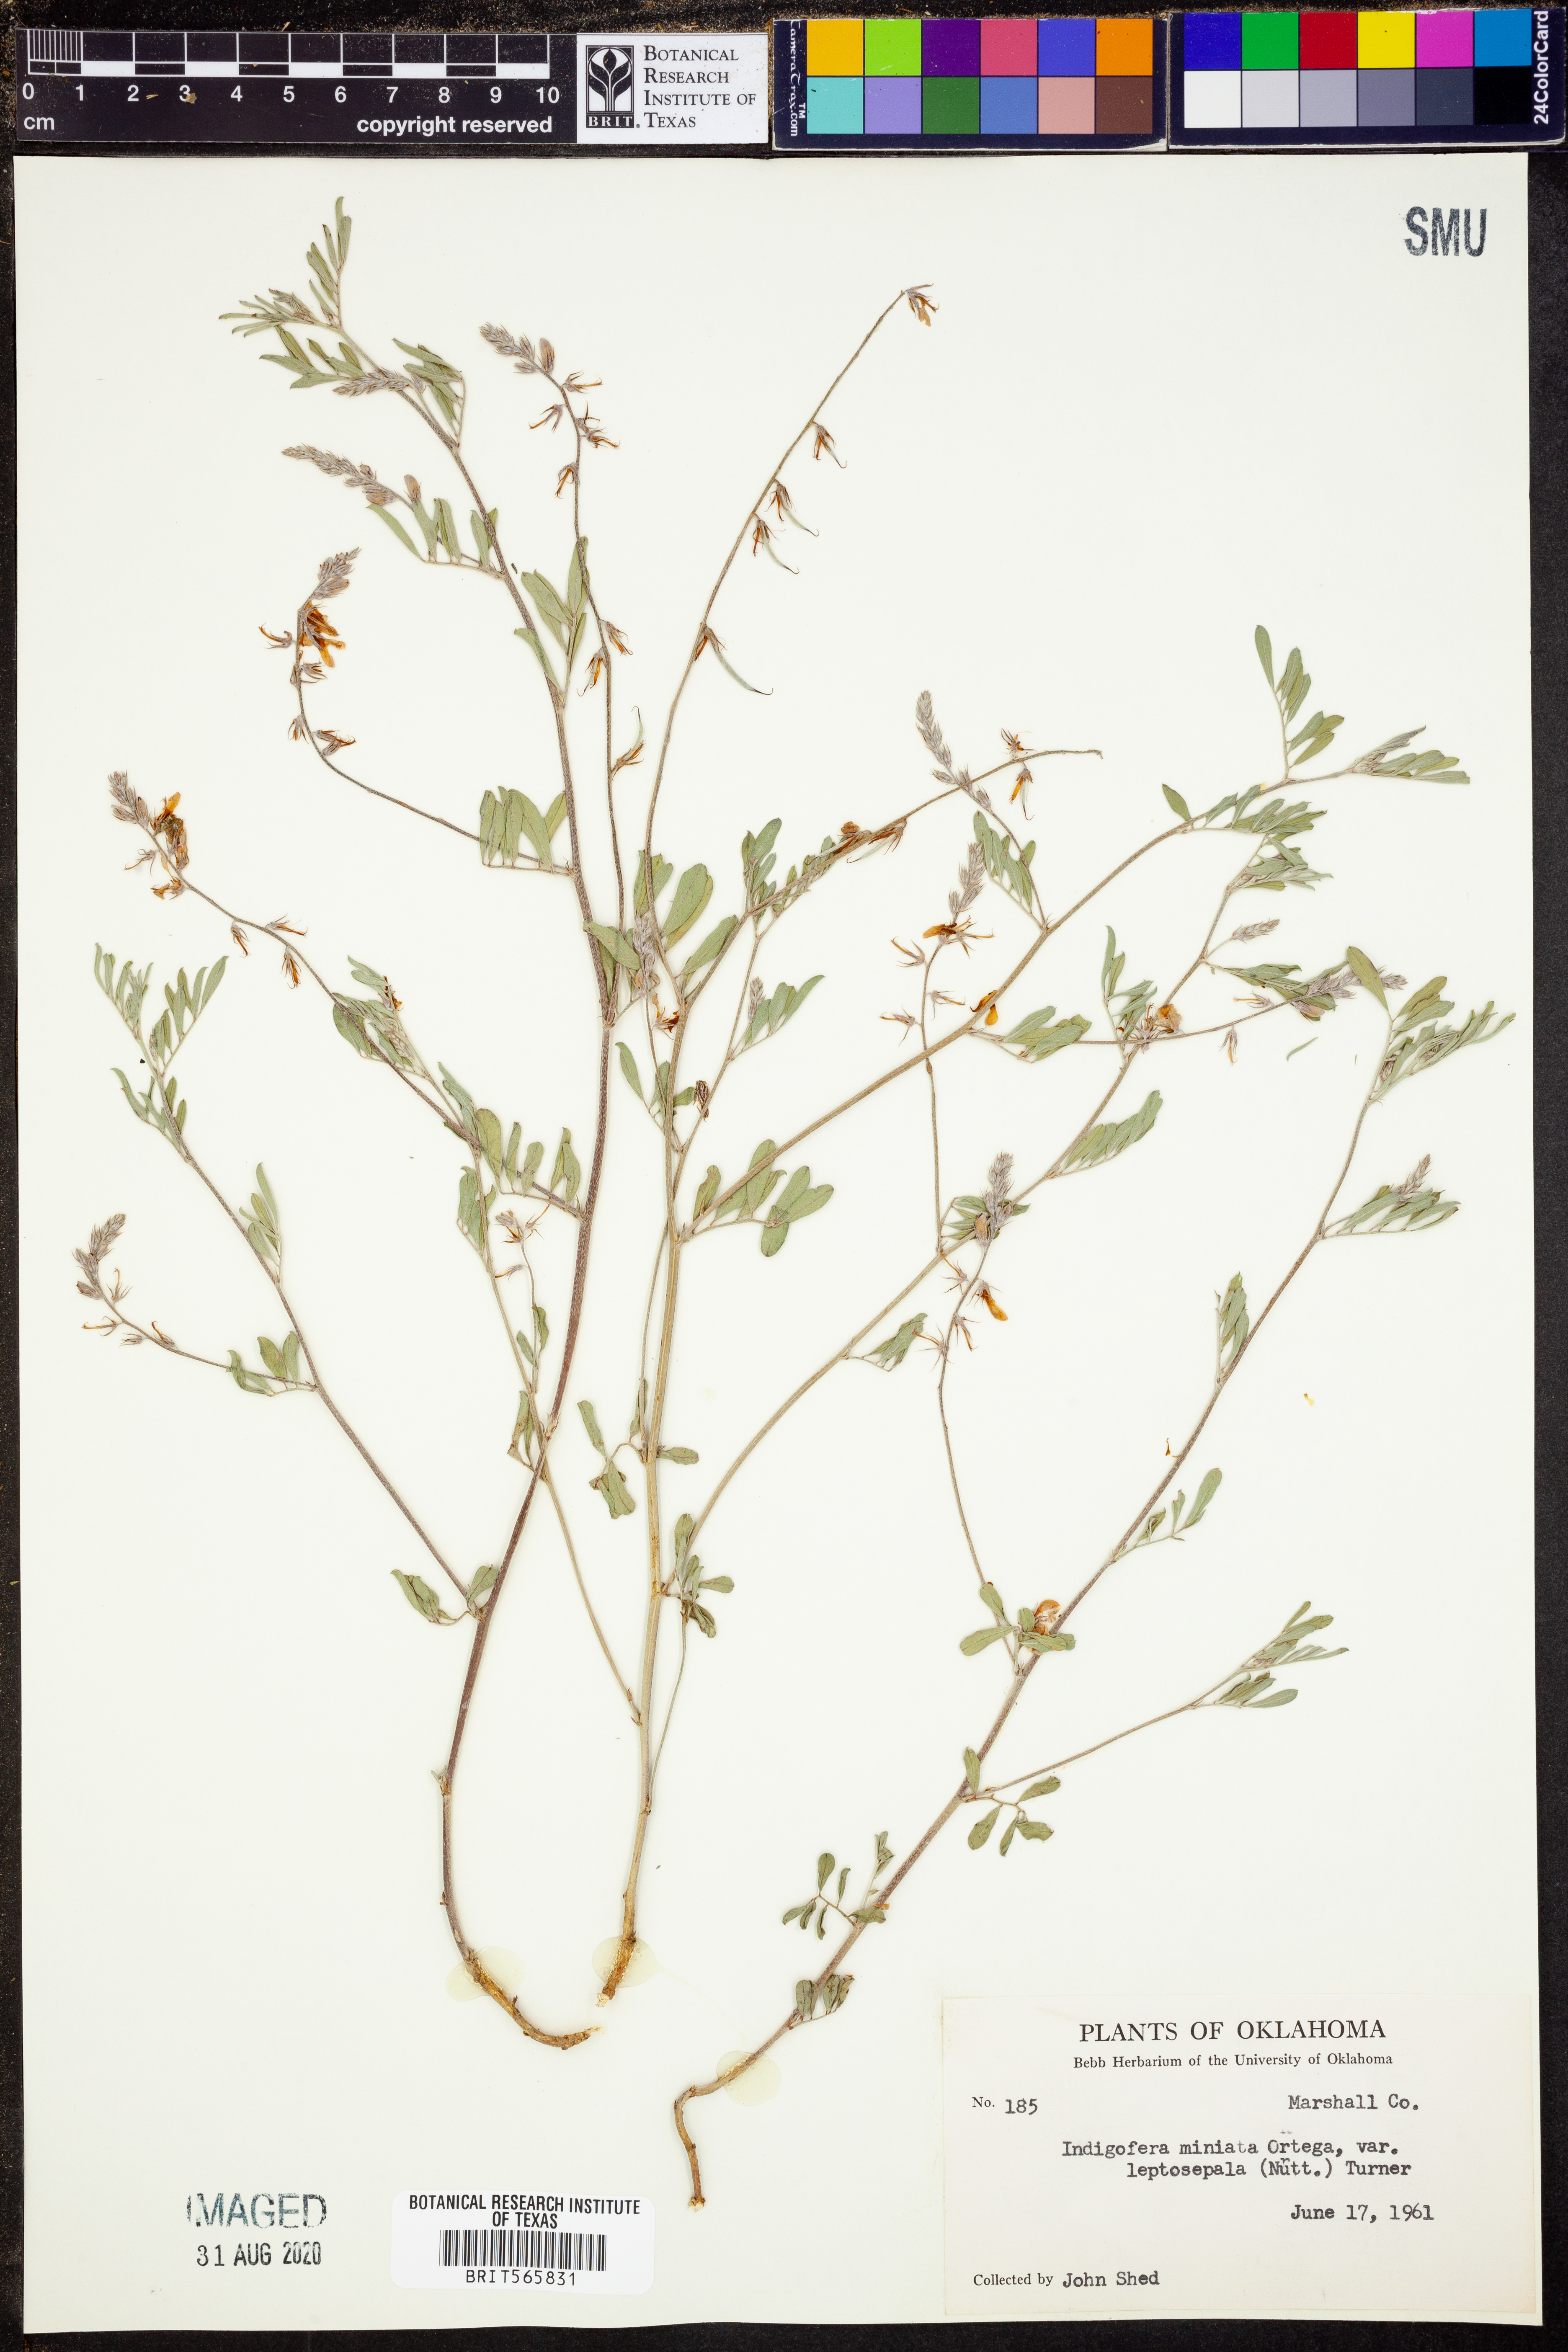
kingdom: Plantae
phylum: Tracheophyta
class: Magnoliopsida
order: Fabales
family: Fabaceae
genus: Indigofera
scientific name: Indigofera miniata
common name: Coast indigo
